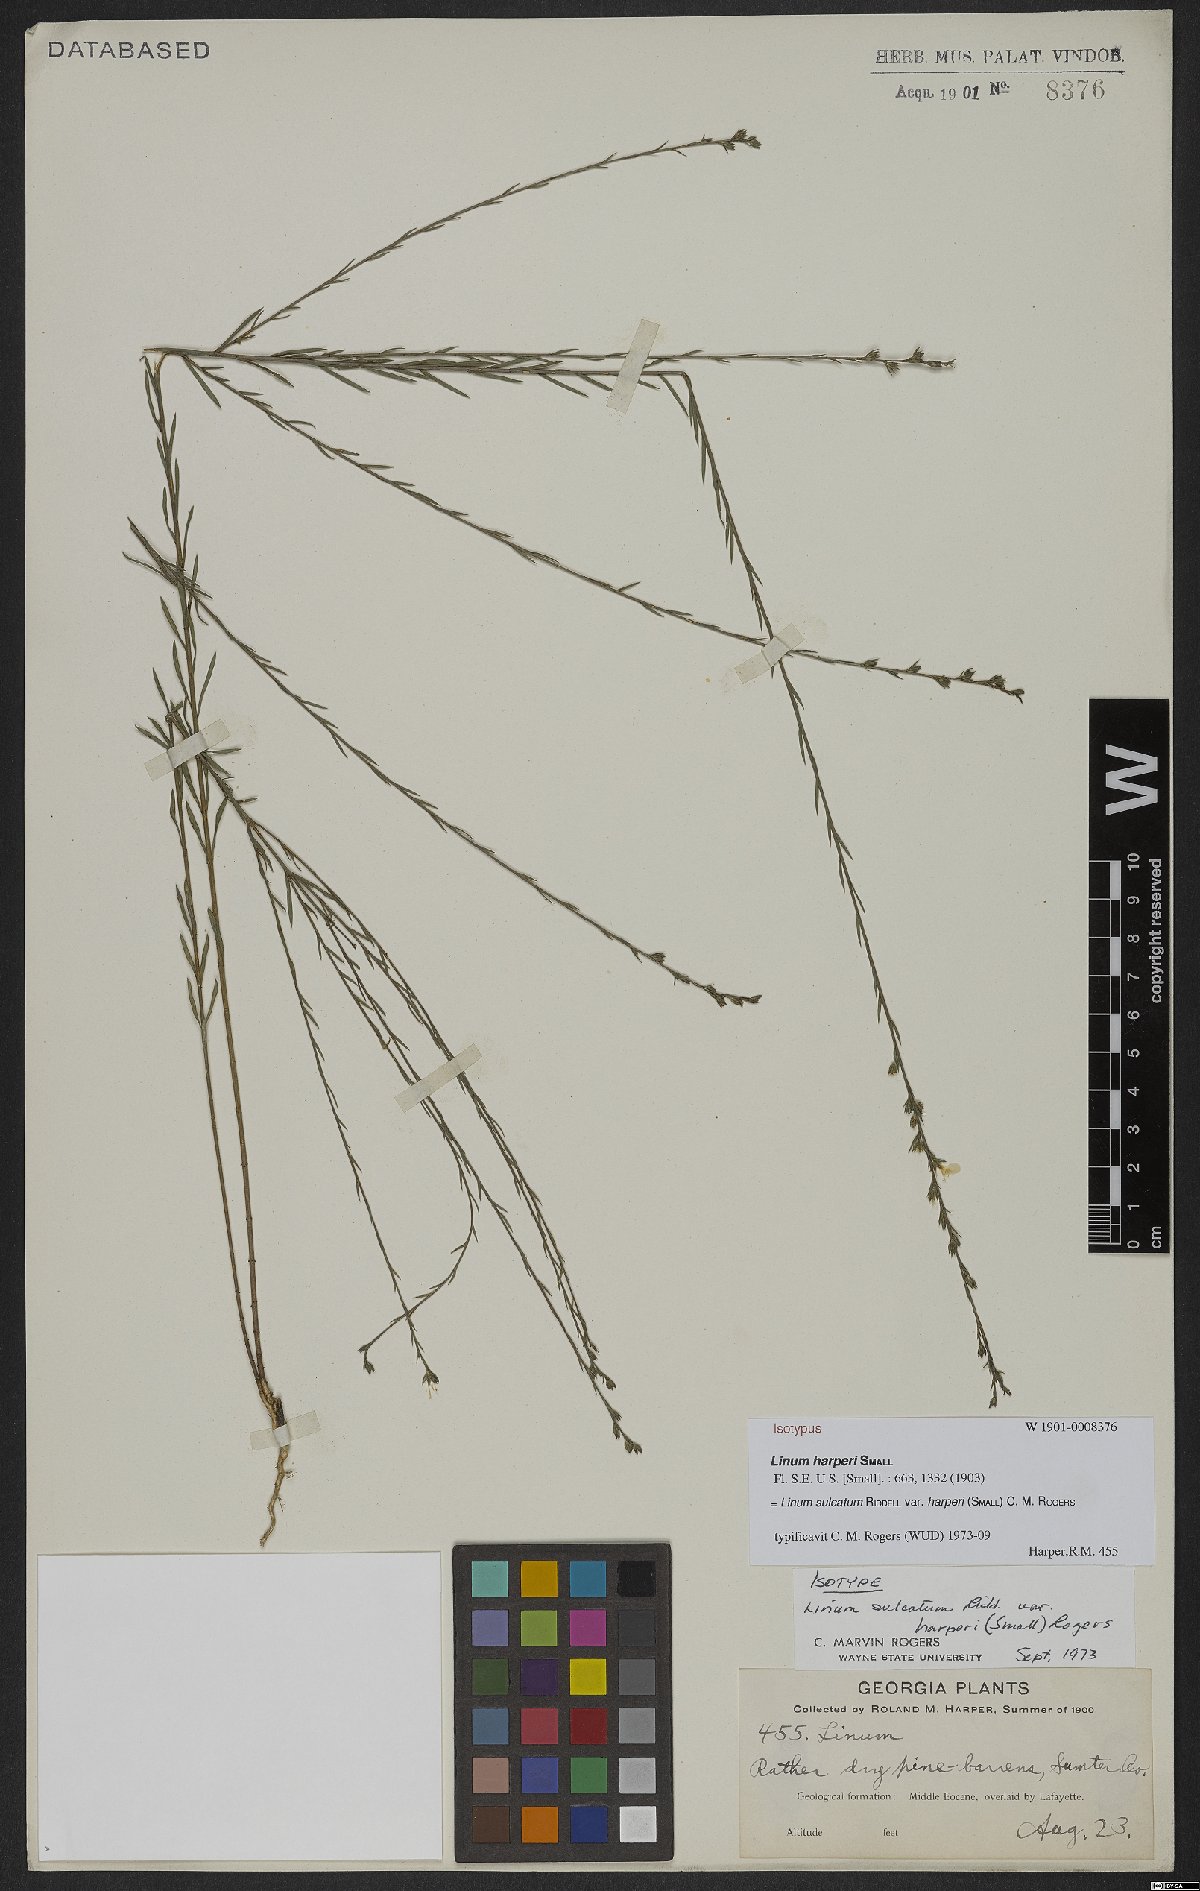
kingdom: Plantae
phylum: Tracheophyta
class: Magnoliopsida
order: Malpighiales
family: Linaceae
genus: Linum
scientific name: Linum sulcatum
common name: Grooved flax
